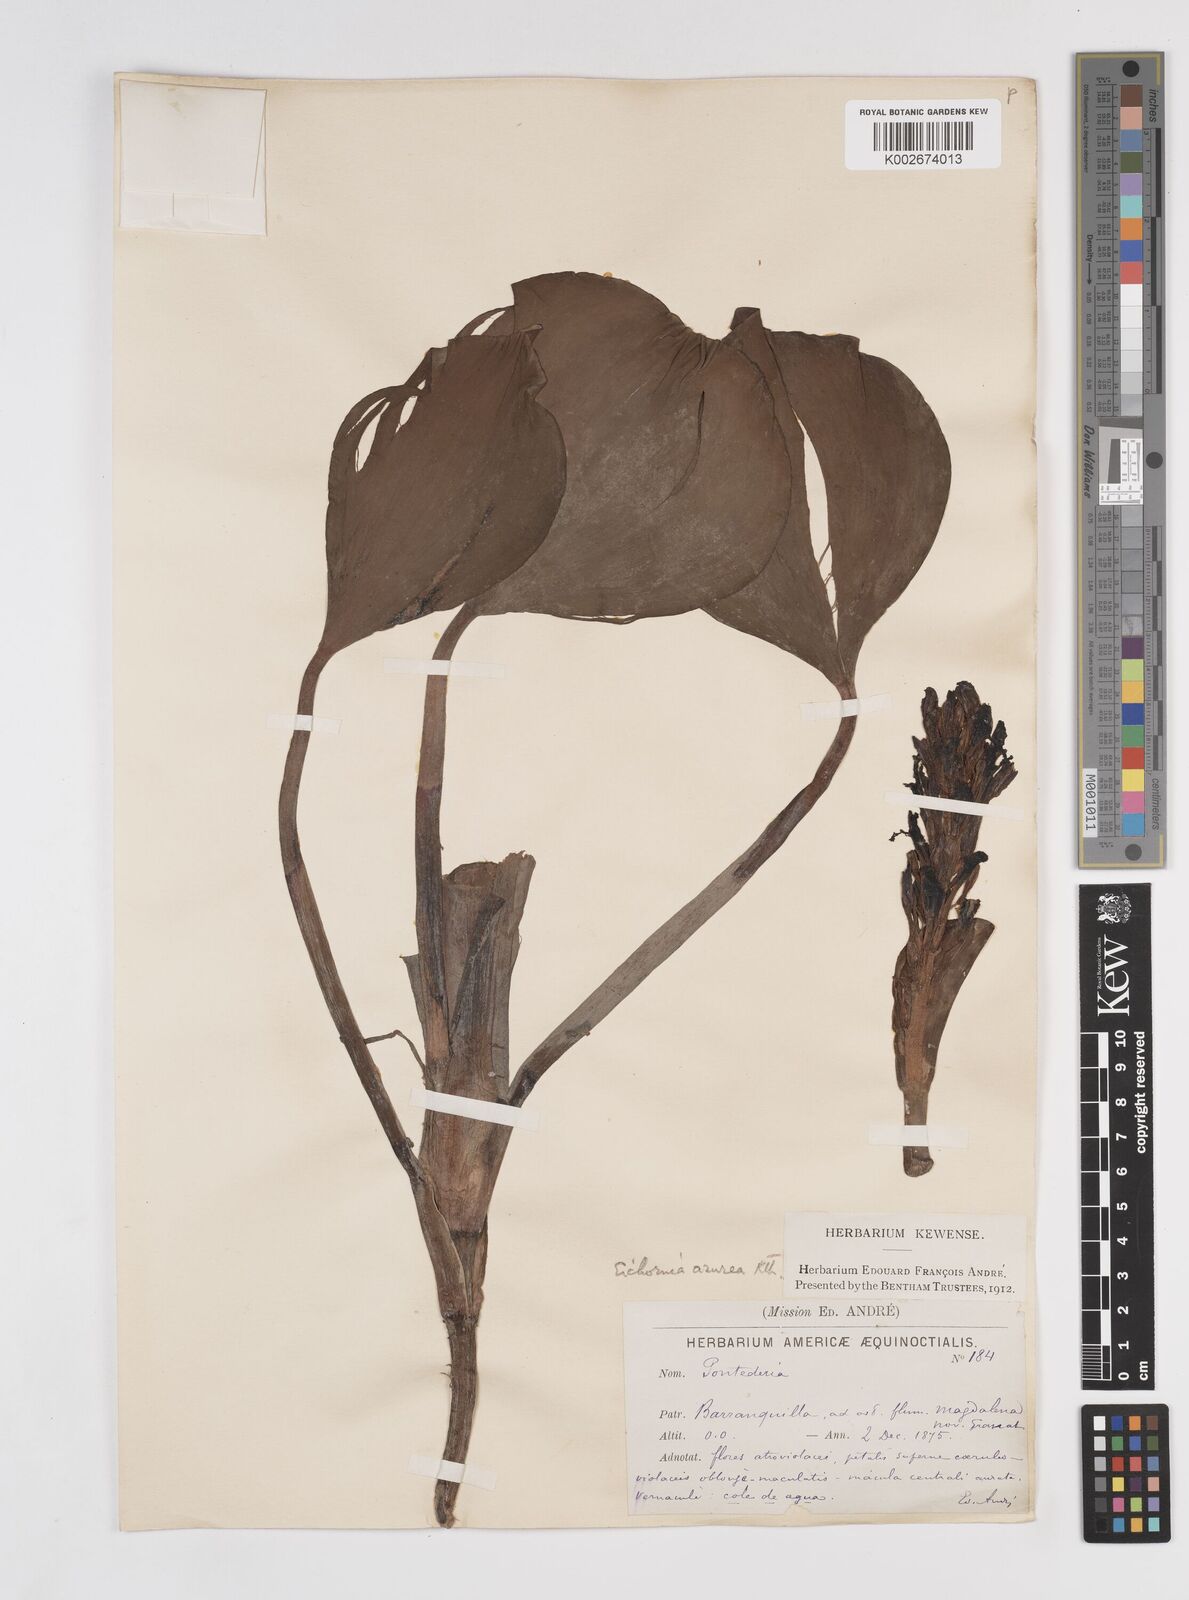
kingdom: Plantae
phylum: Tracheophyta
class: Liliopsida
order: Commelinales
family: Pontederiaceae
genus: Pontederia
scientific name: Pontederia azurea
